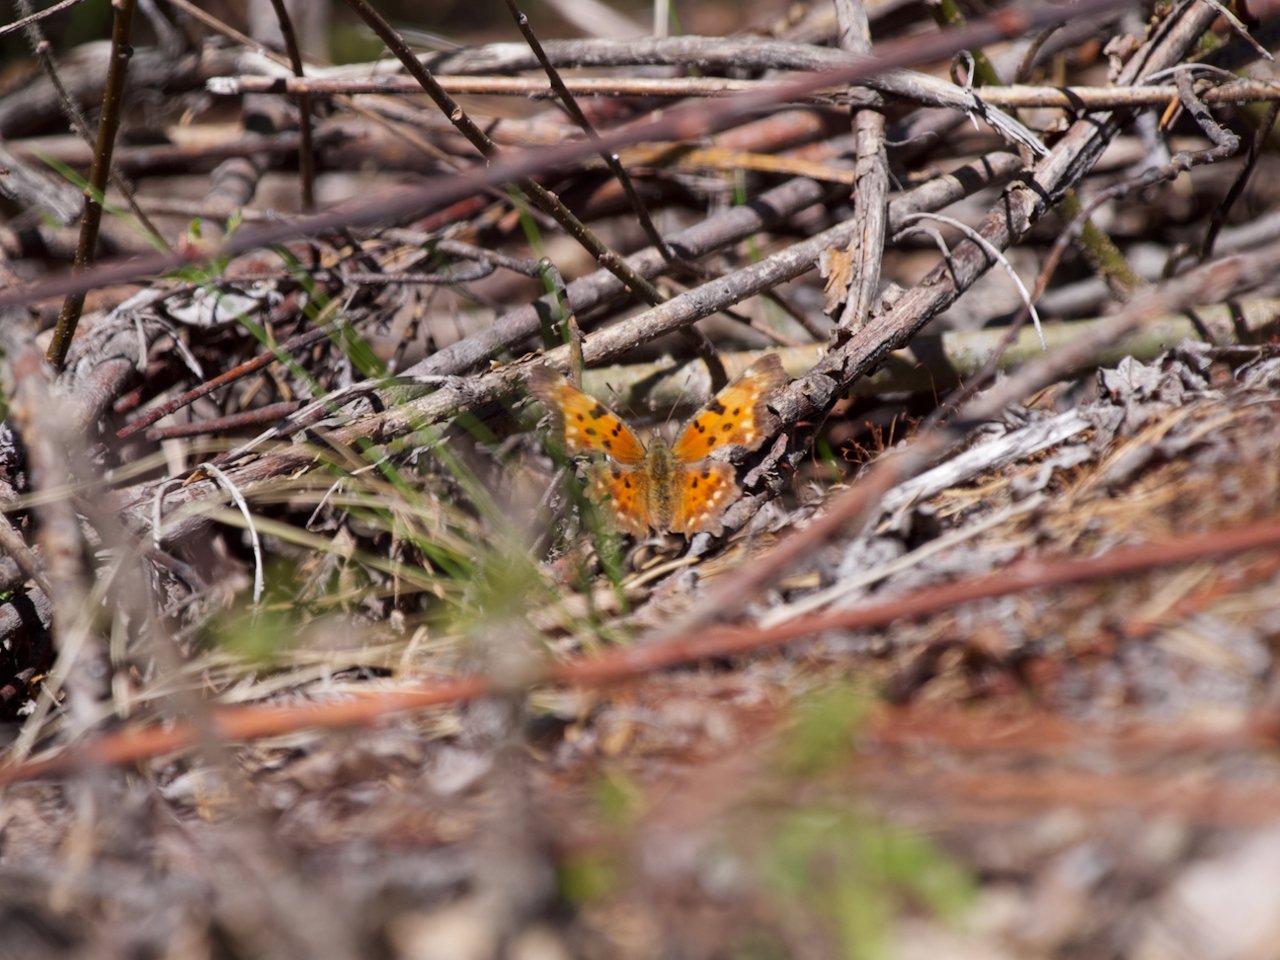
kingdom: Animalia
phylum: Arthropoda
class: Insecta
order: Lepidoptera
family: Nymphalidae
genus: Polygonia
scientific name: Polygonia
